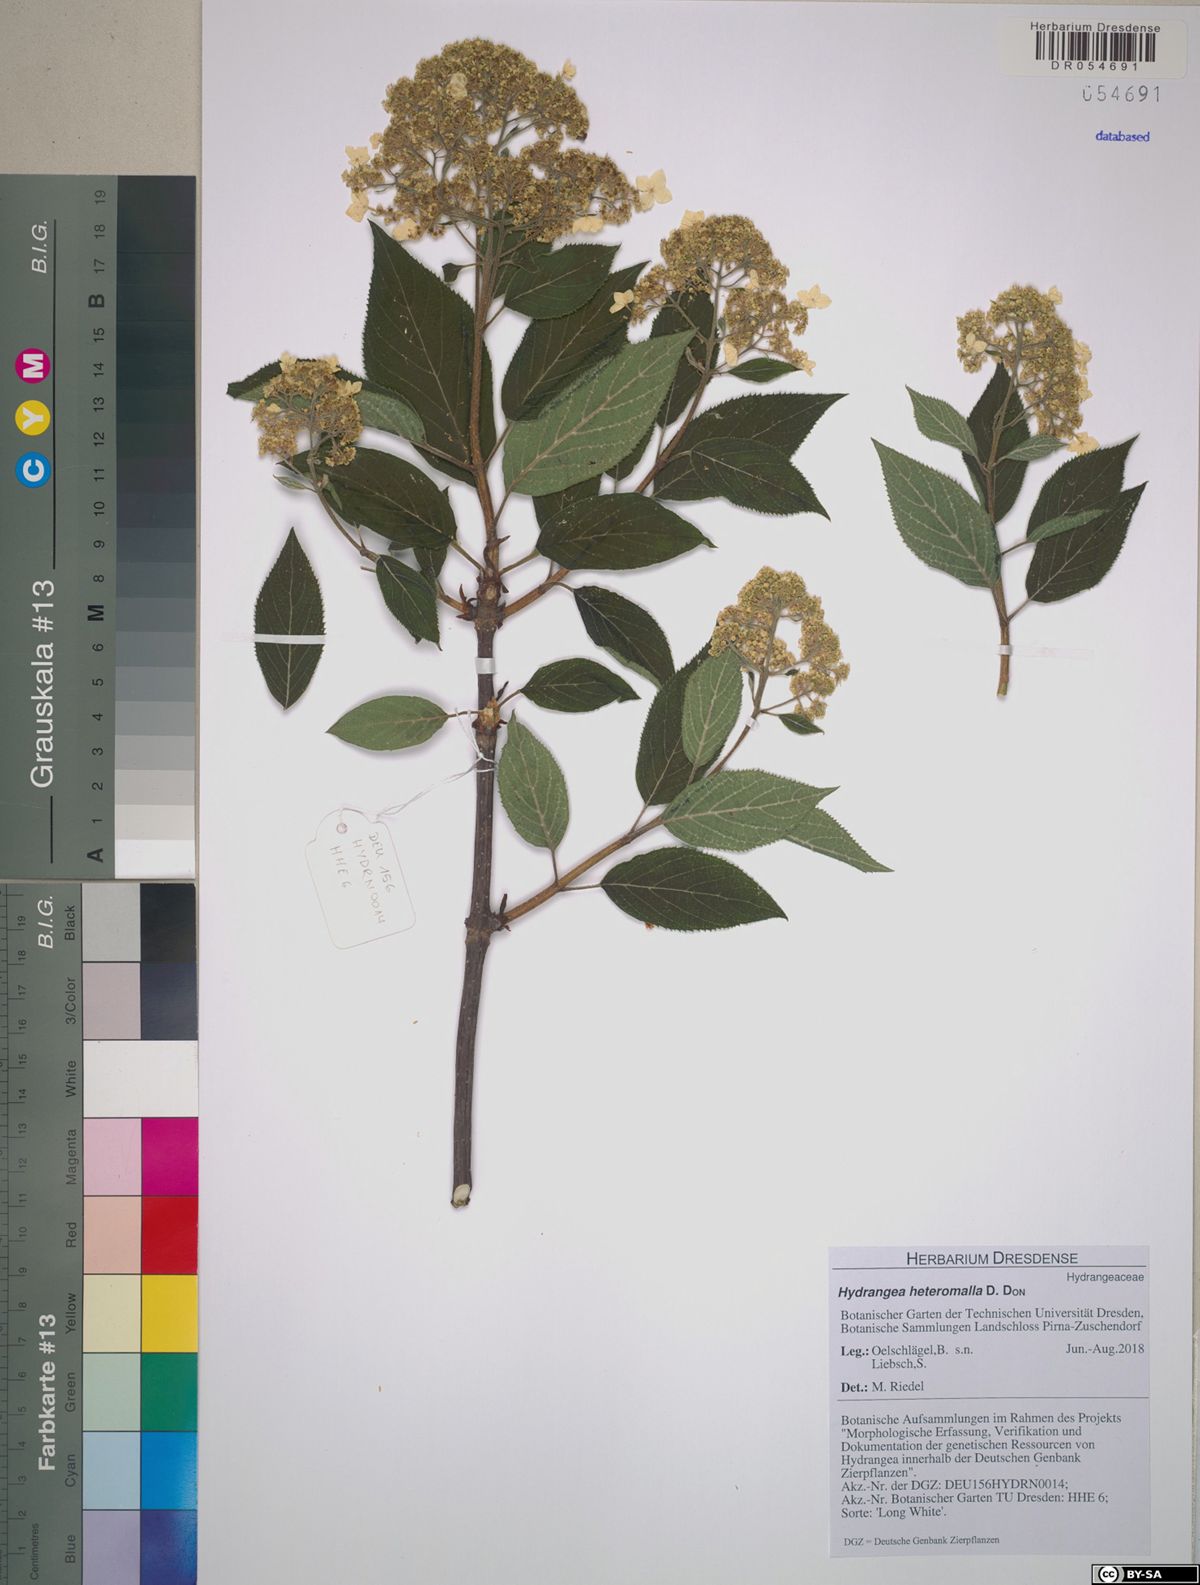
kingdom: Plantae
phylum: Tracheophyta
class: Magnoliopsida
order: Cornales
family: Hydrangeaceae
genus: Hydrangea
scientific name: Hydrangea heteromalla
